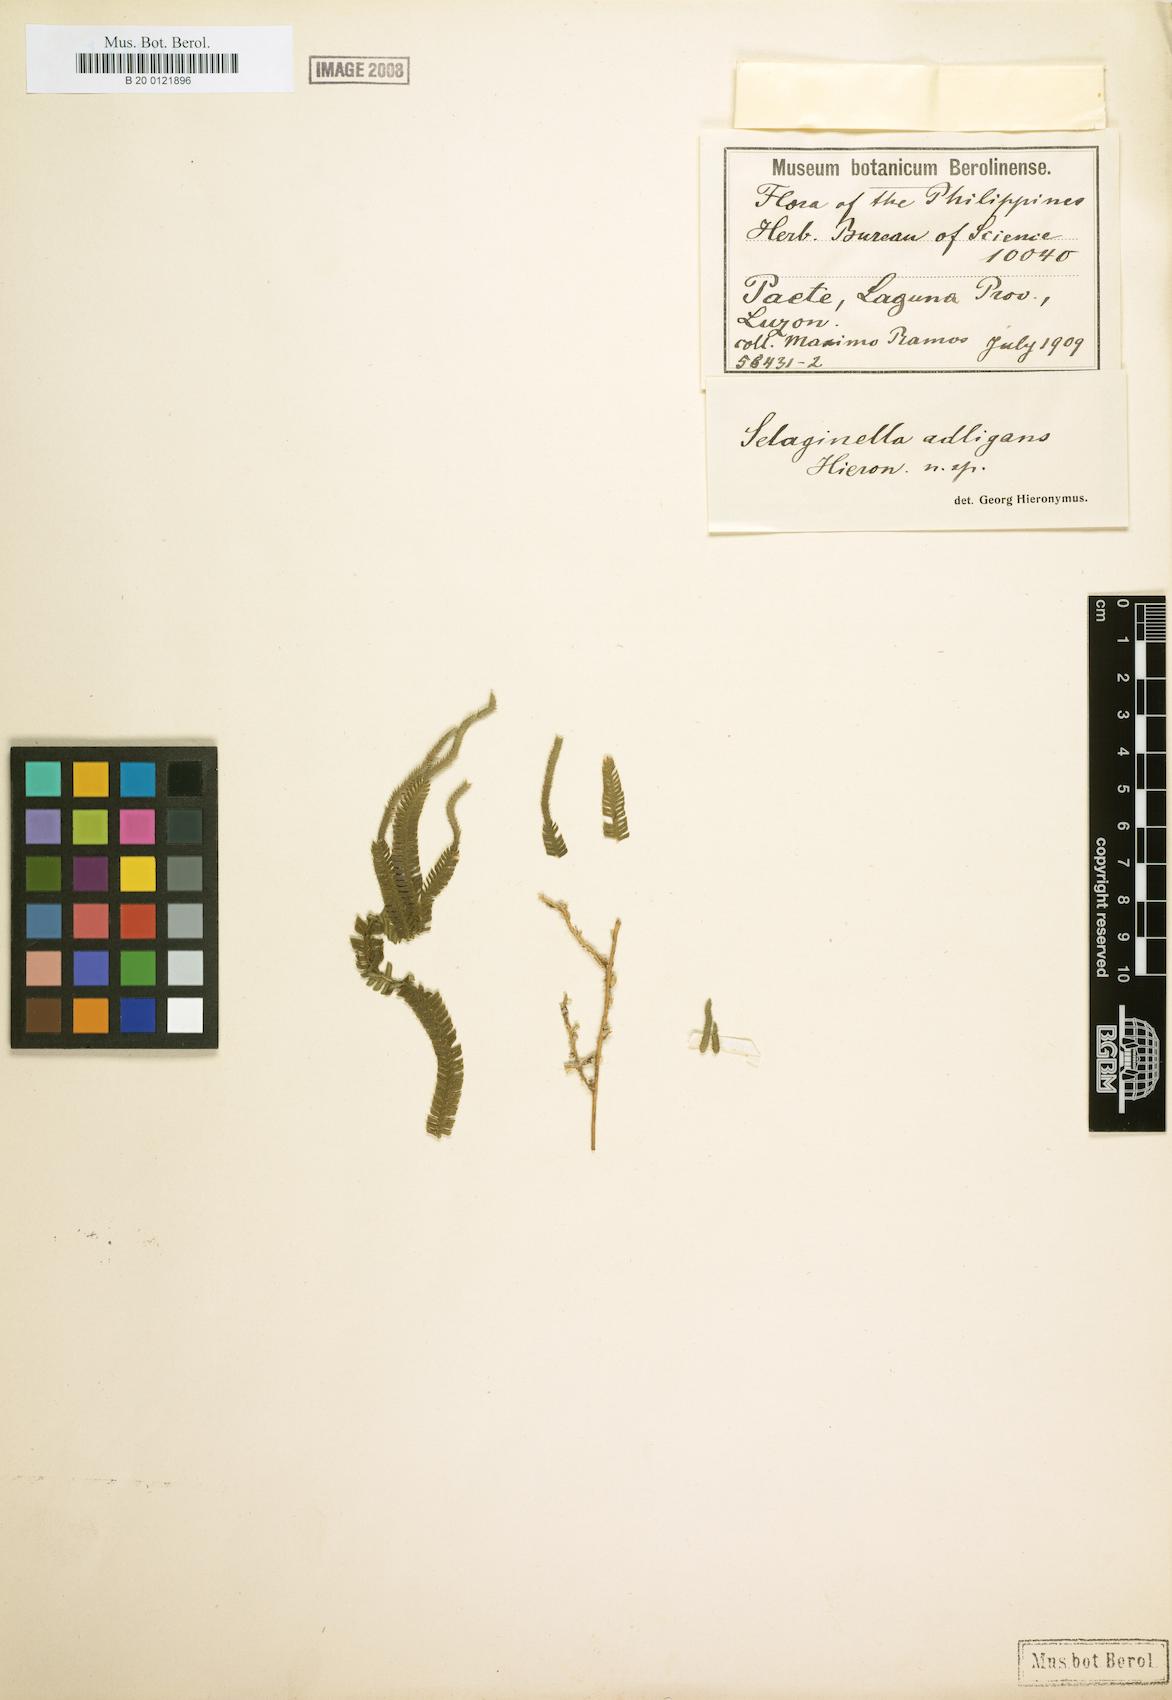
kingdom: Plantae
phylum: Tracheophyta
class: Lycopodiopsida
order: Selaginellales
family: Selaginellaceae
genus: Selaginella
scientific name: Selaginella alligans
